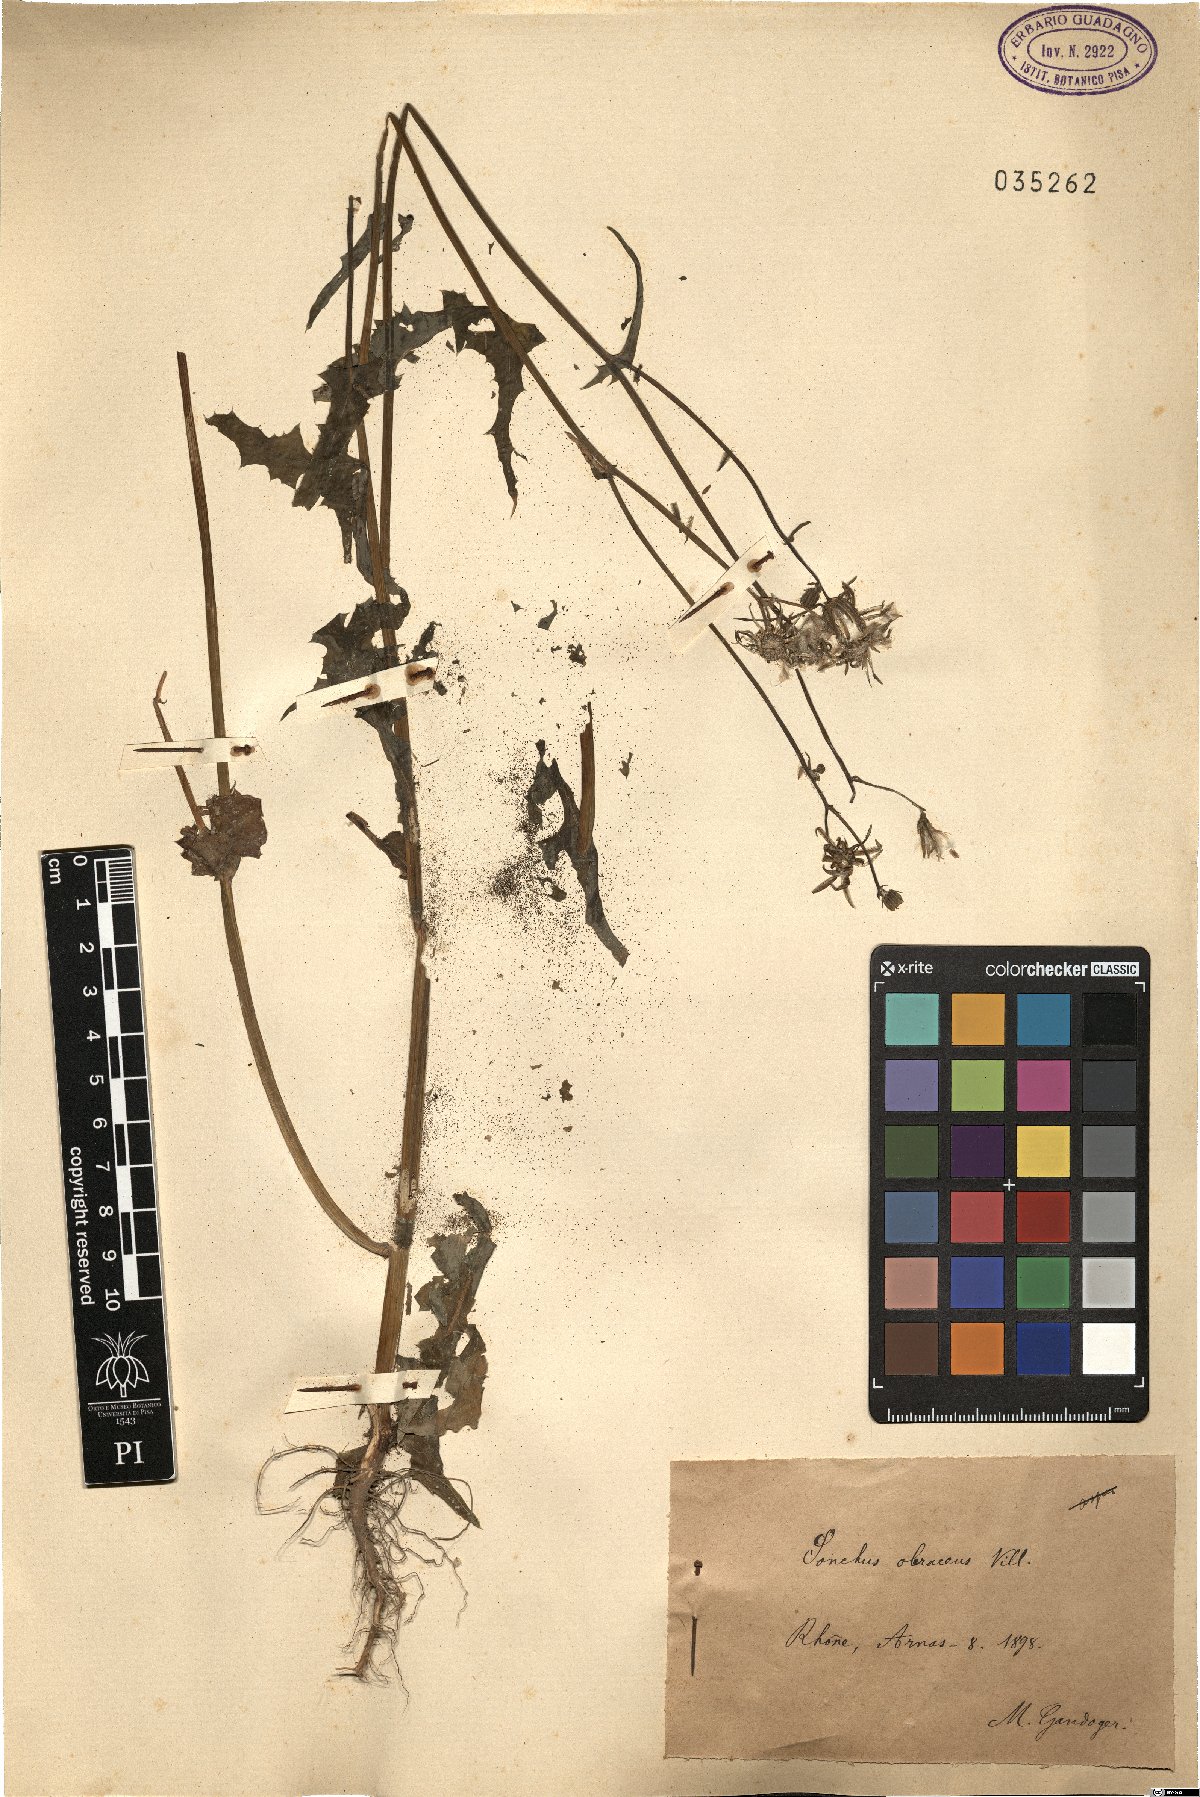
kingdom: Plantae
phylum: Tracheophyta
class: Magnoliopsida
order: Asterales
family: Asteraceae
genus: Sonchus
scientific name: Sonchus oleraceus
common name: Common sowthistle
